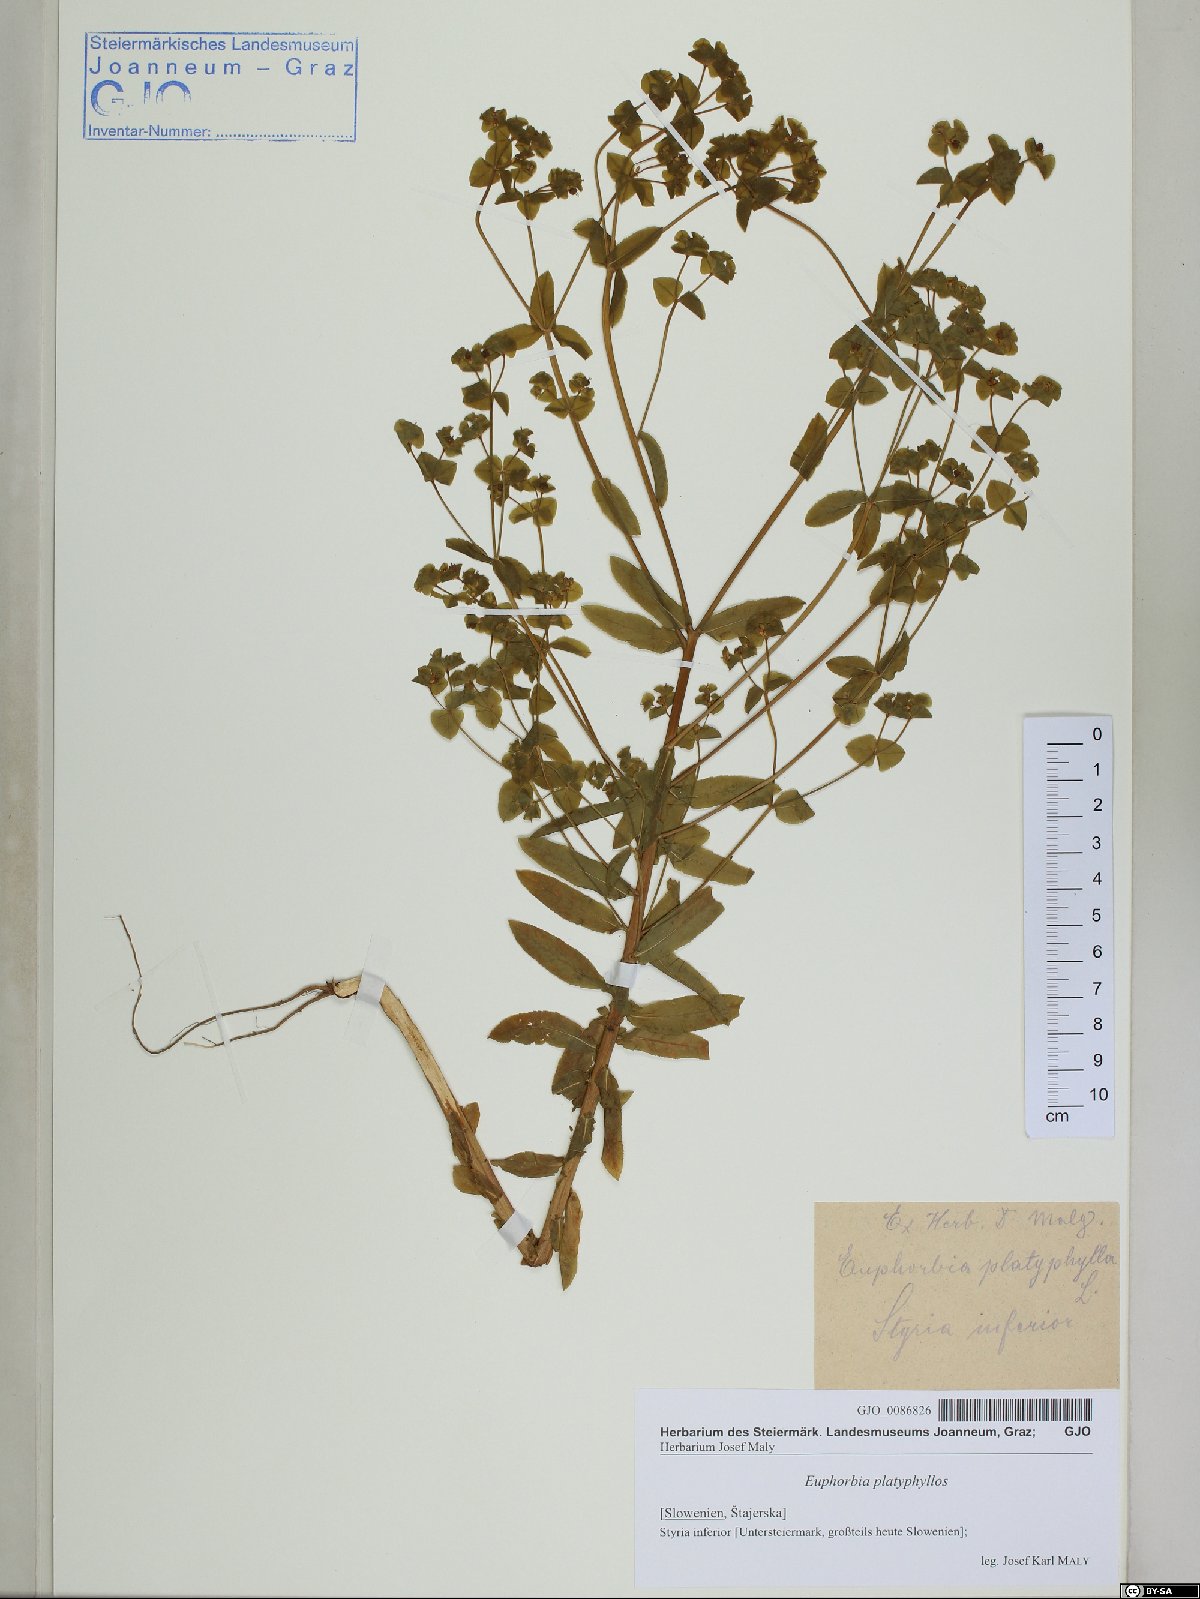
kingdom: Plantae
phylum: Tracheophyta
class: Magnoliopsida
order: Malpighiales
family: Euphorbiaceae
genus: Euphorbia
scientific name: Euphorbia platyphyllos
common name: Broad-leaved spurge
